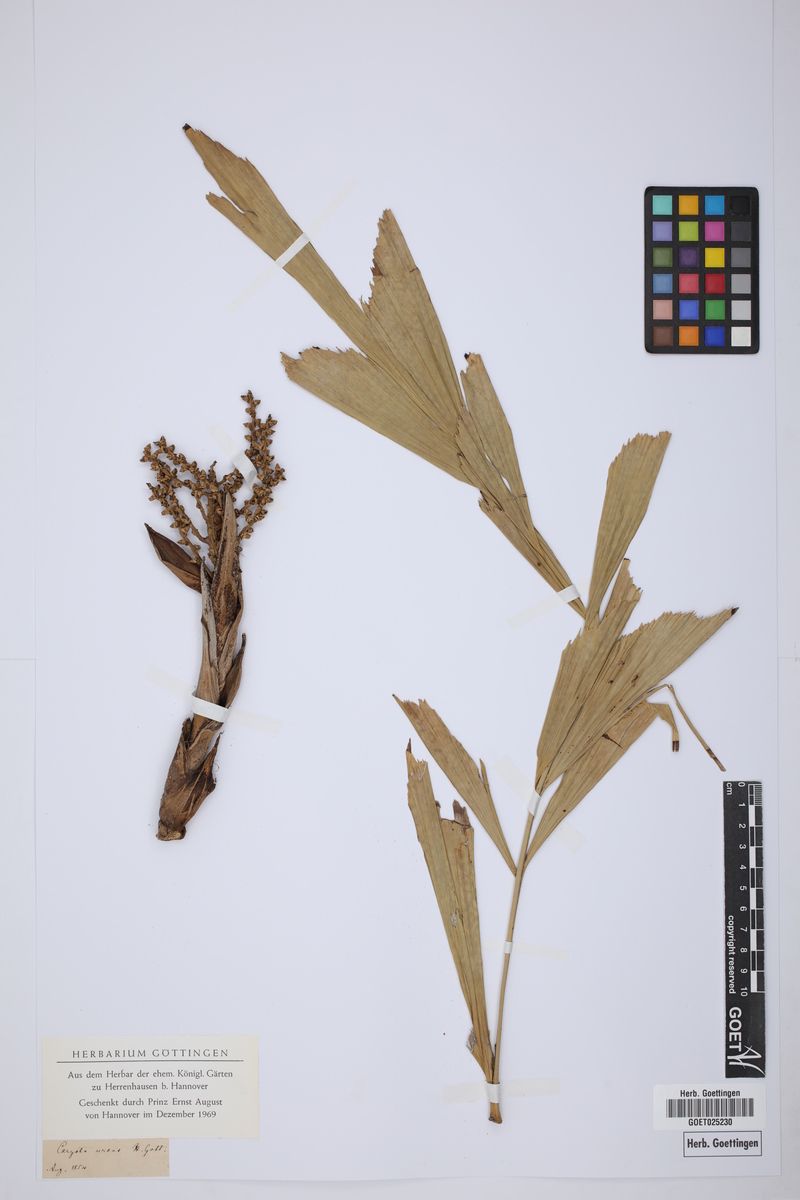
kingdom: Plantae
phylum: Tracheophyta
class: Liliopsida
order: Arecales
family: Arecaceae
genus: Caryota
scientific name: Caryota urens
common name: Jaggery palm
